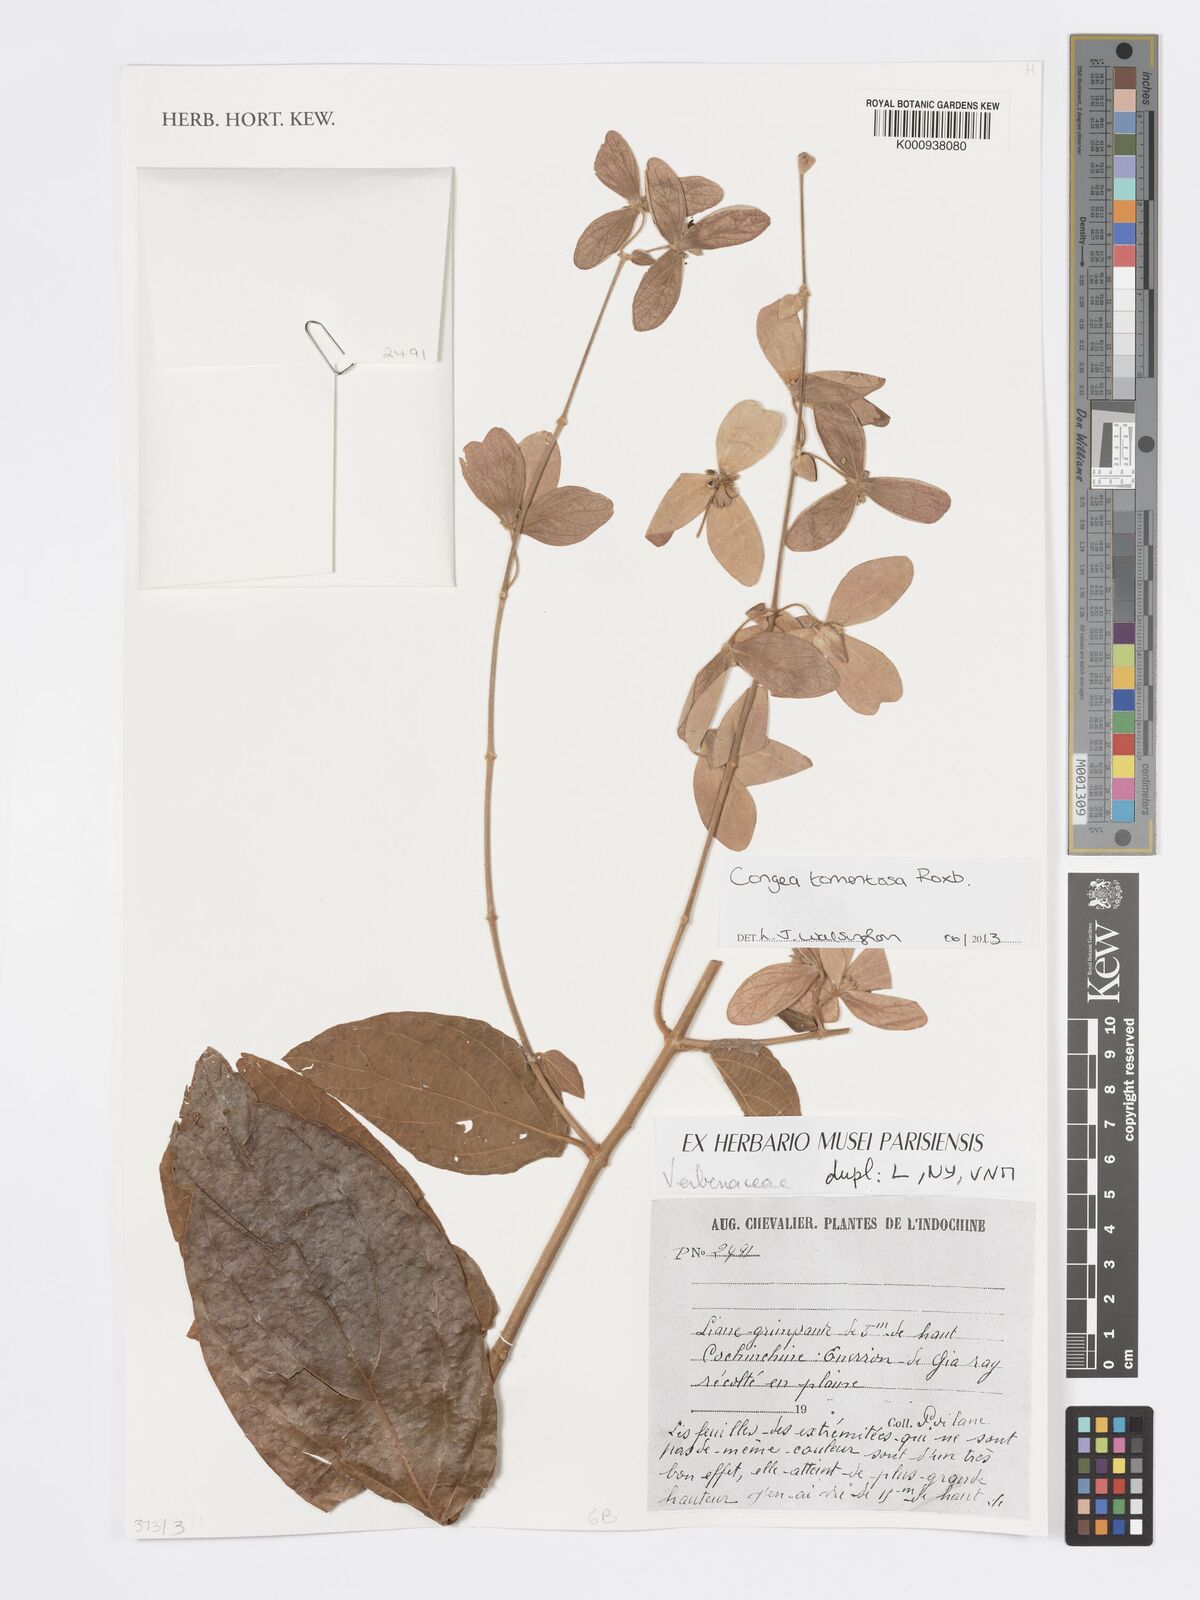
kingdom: Plantae
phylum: Tracheophyta
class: Magnoliopsida
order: Lamiales
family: Lamiaceae
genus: Congea
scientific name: Congea tomentosa
